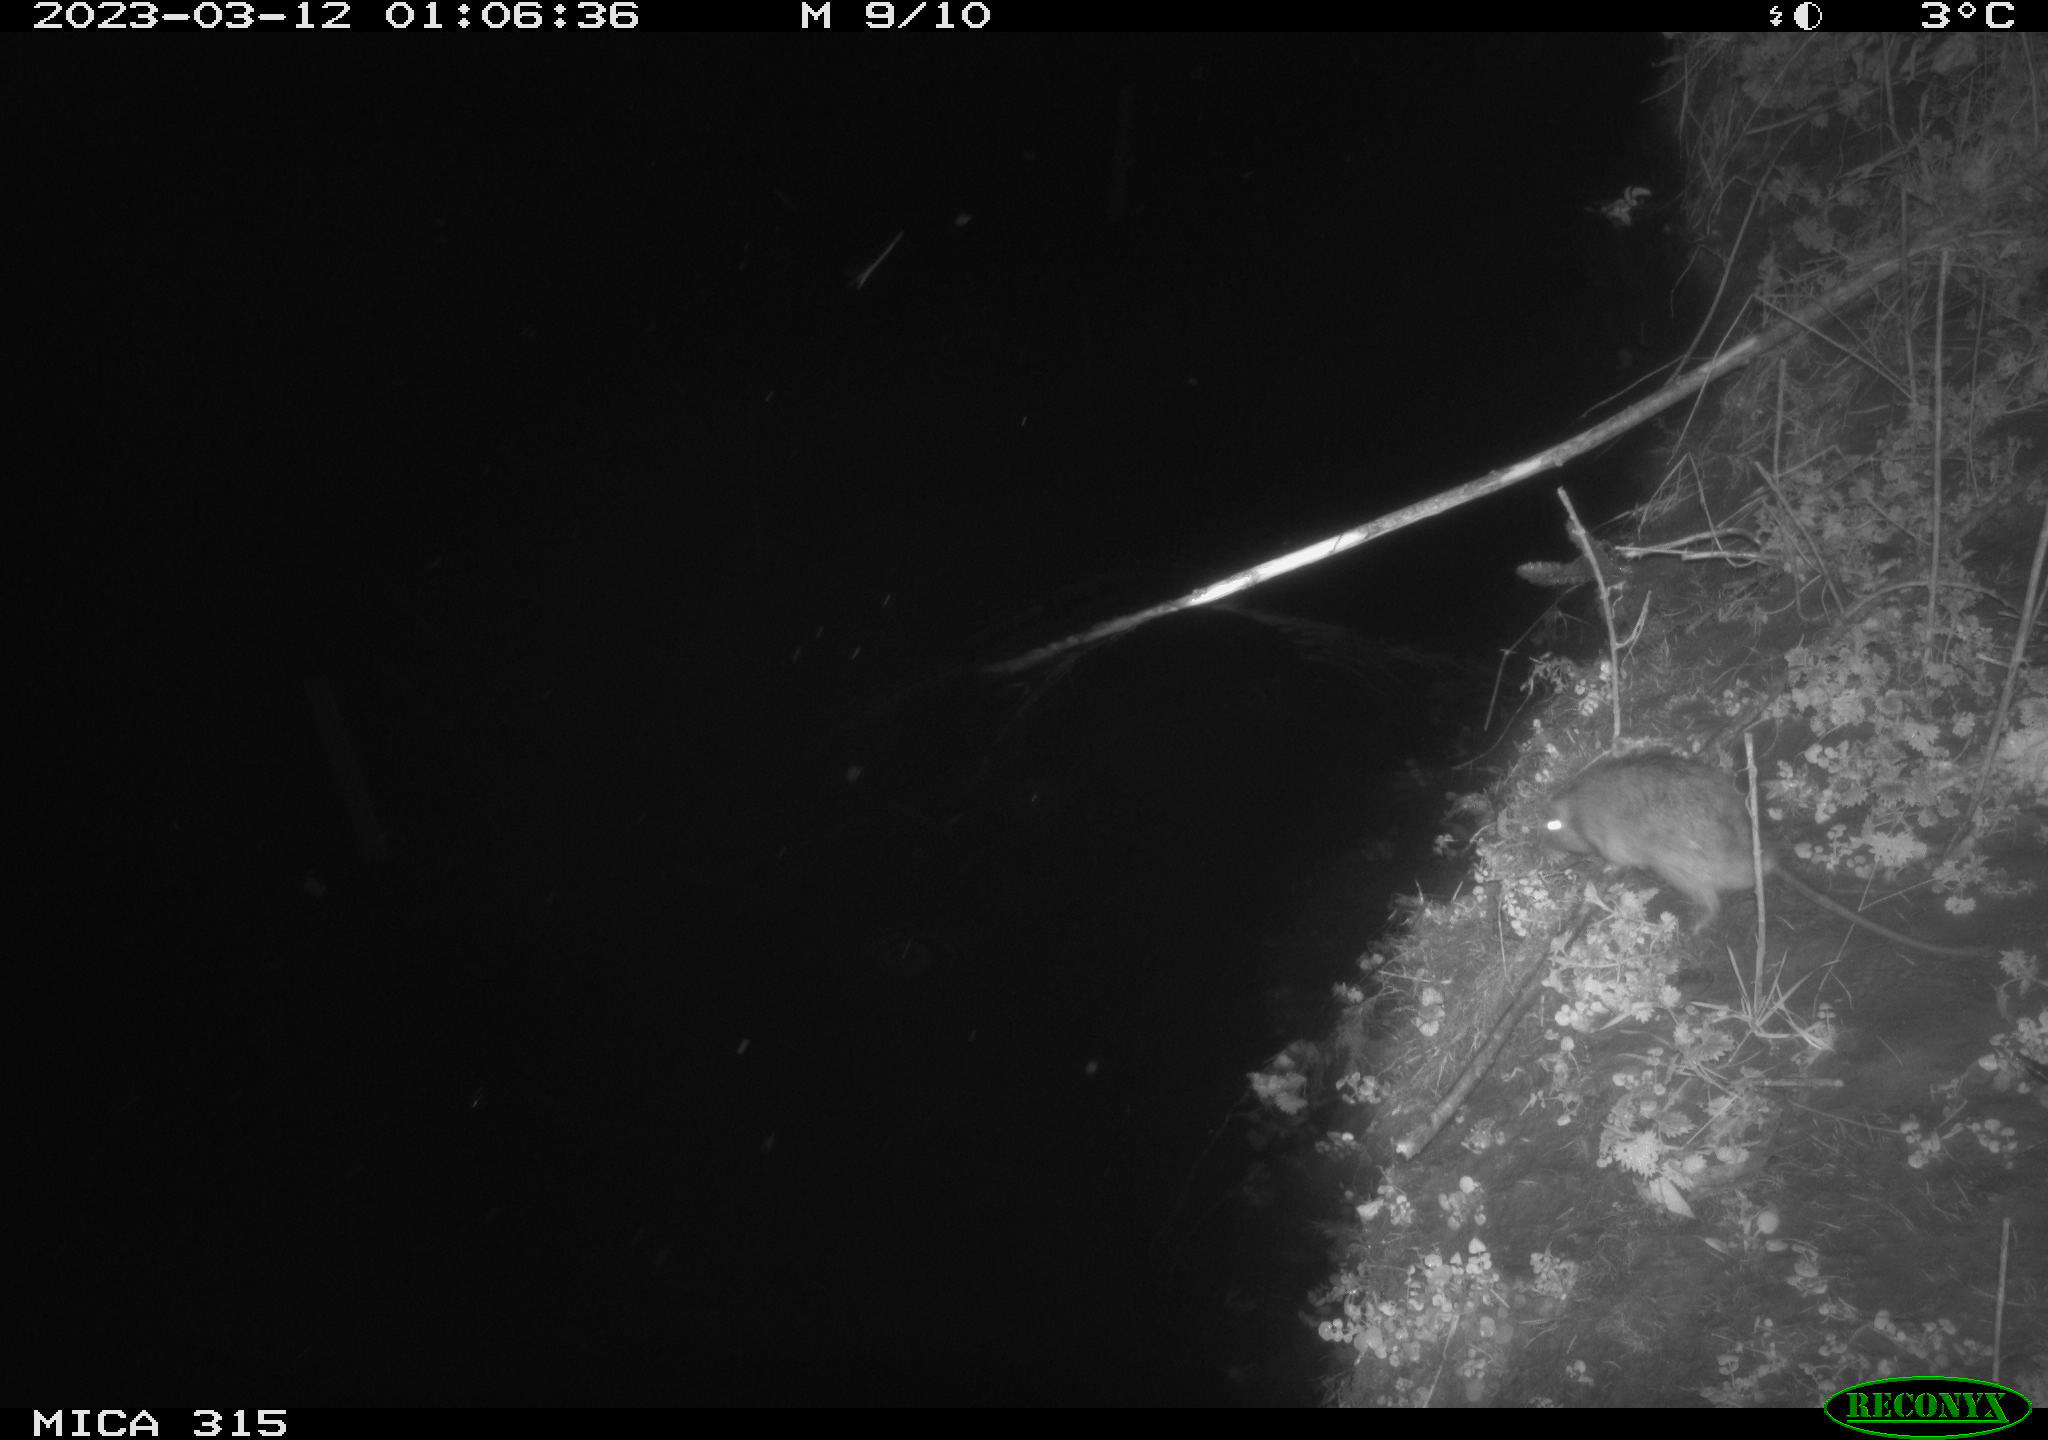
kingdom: Animalia
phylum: Chordata
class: Mammalia
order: Rodentia
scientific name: Rodentia
